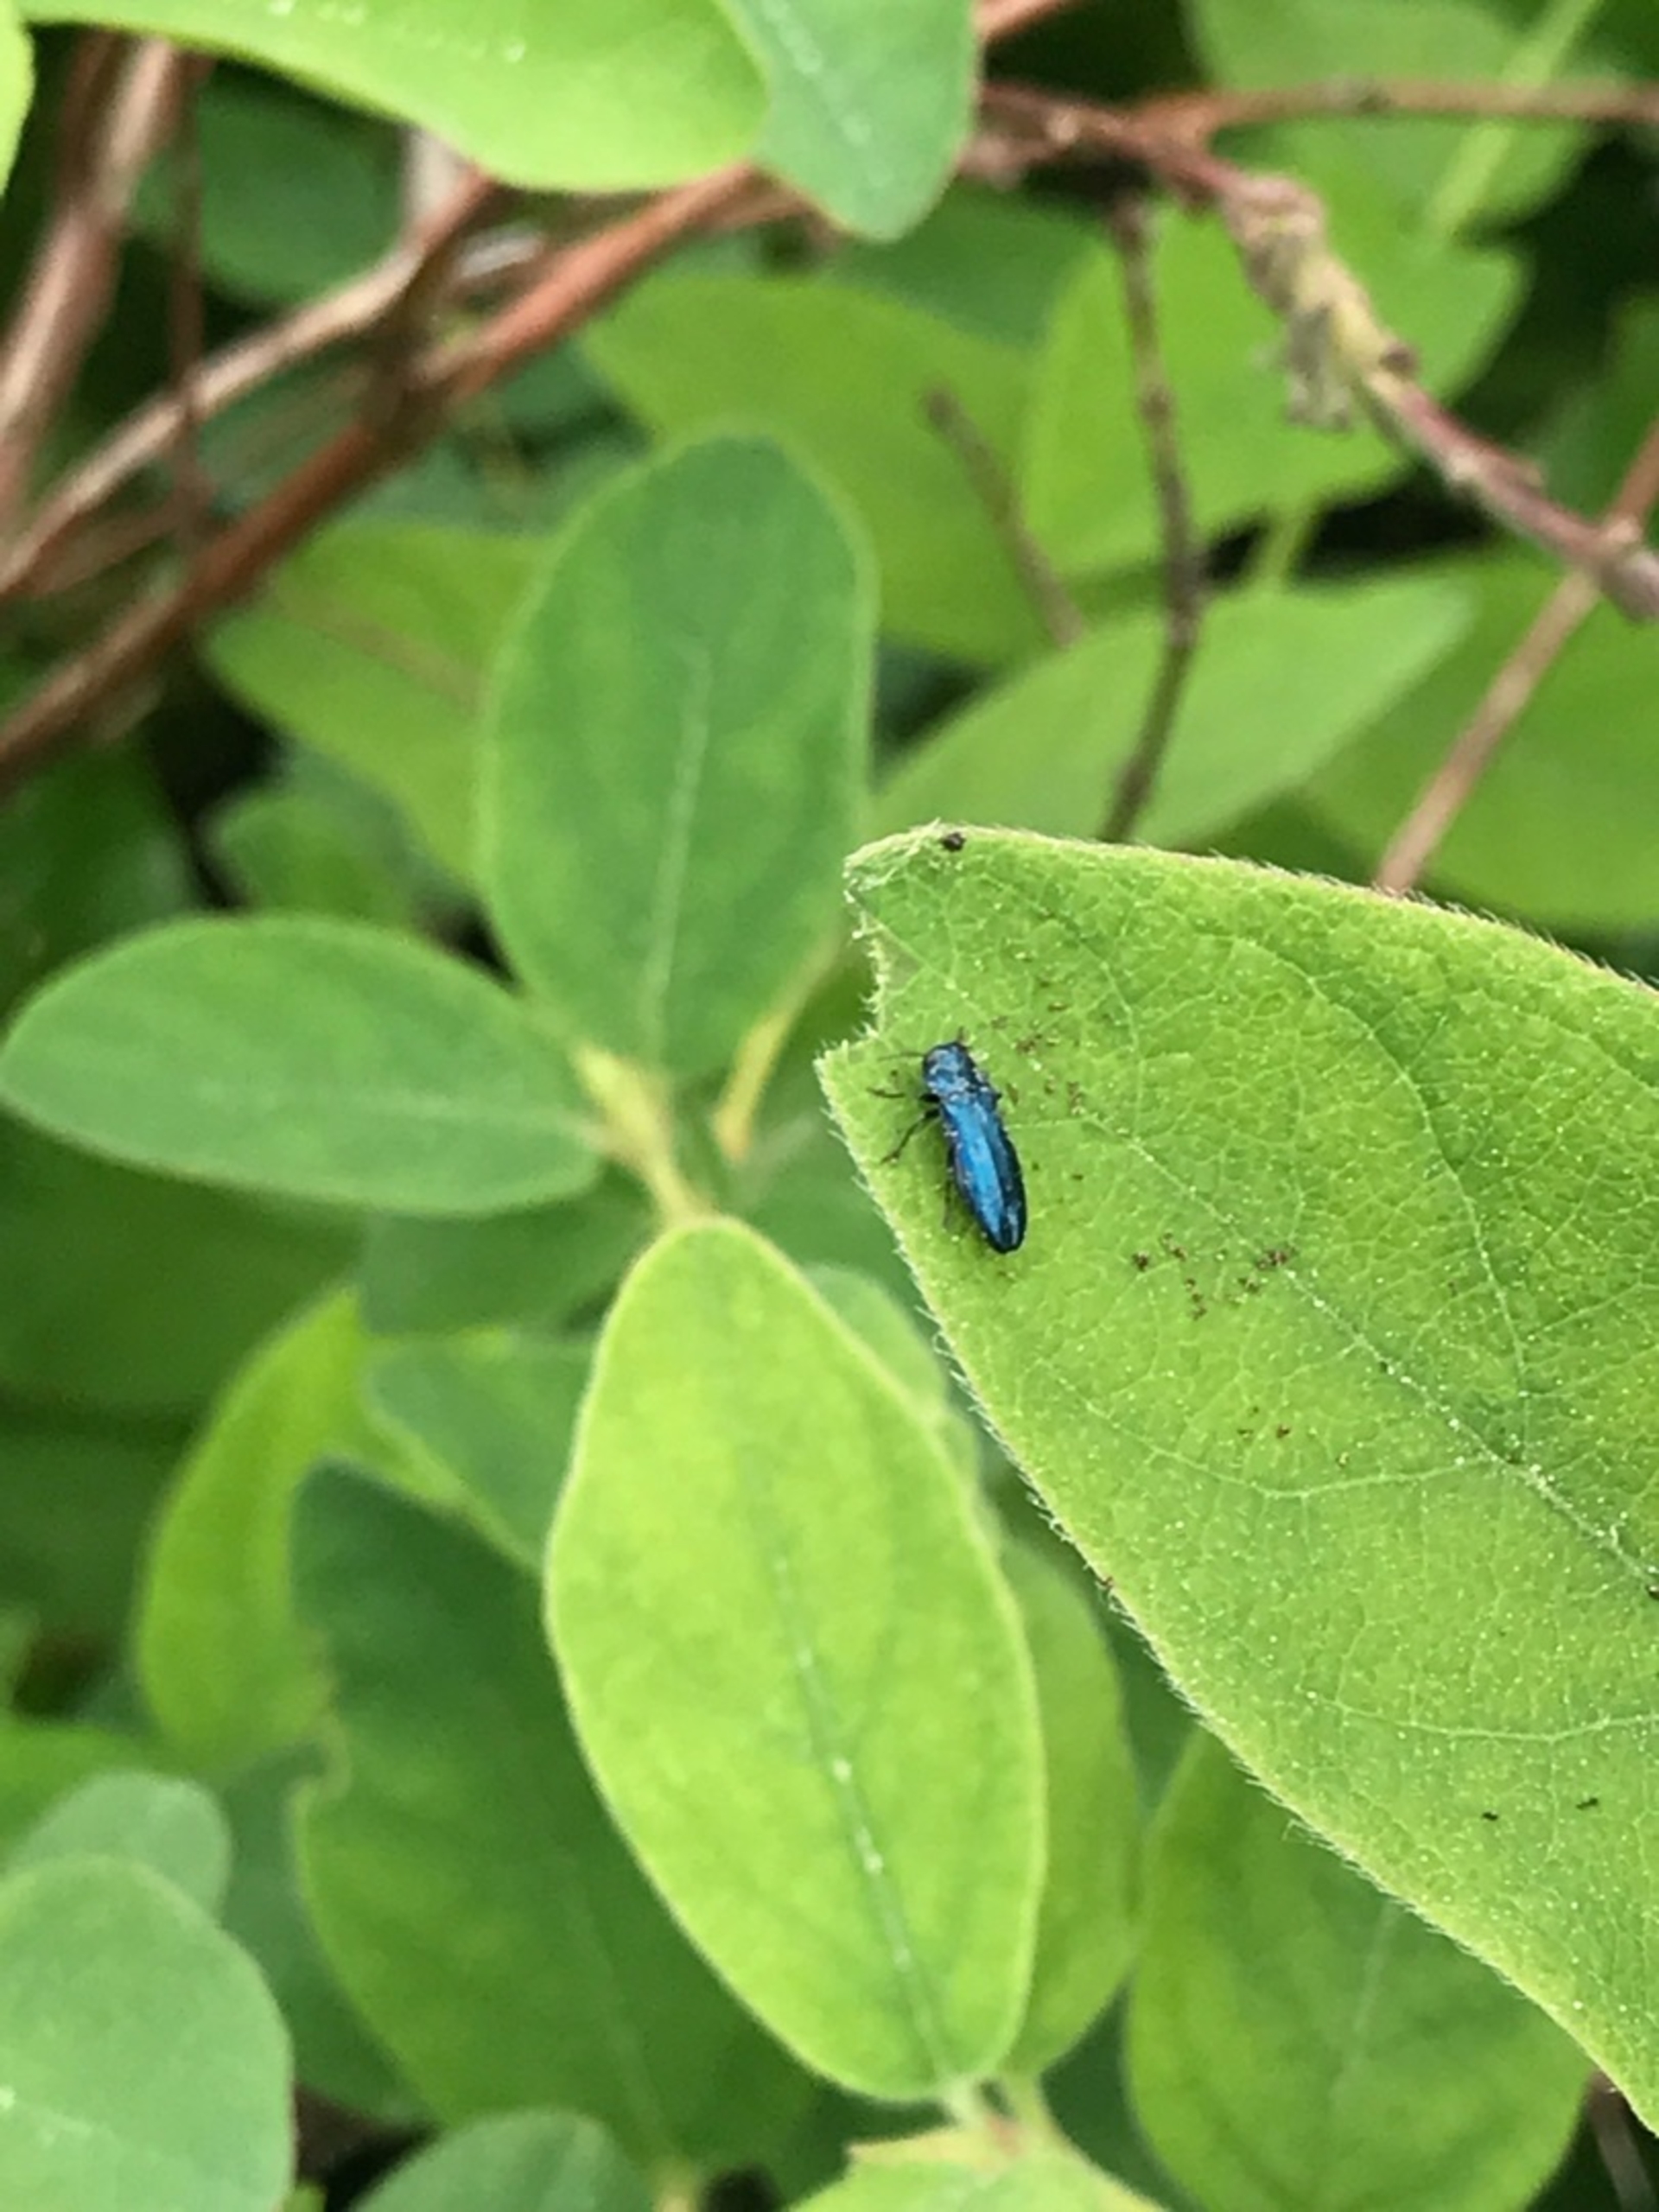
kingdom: Animalia
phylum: Arthropoda
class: Insecta
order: Coleoptera
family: Buprestidae
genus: Agrilus
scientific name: Agrilus cyanescens
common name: Kaprifoliepragtbille
